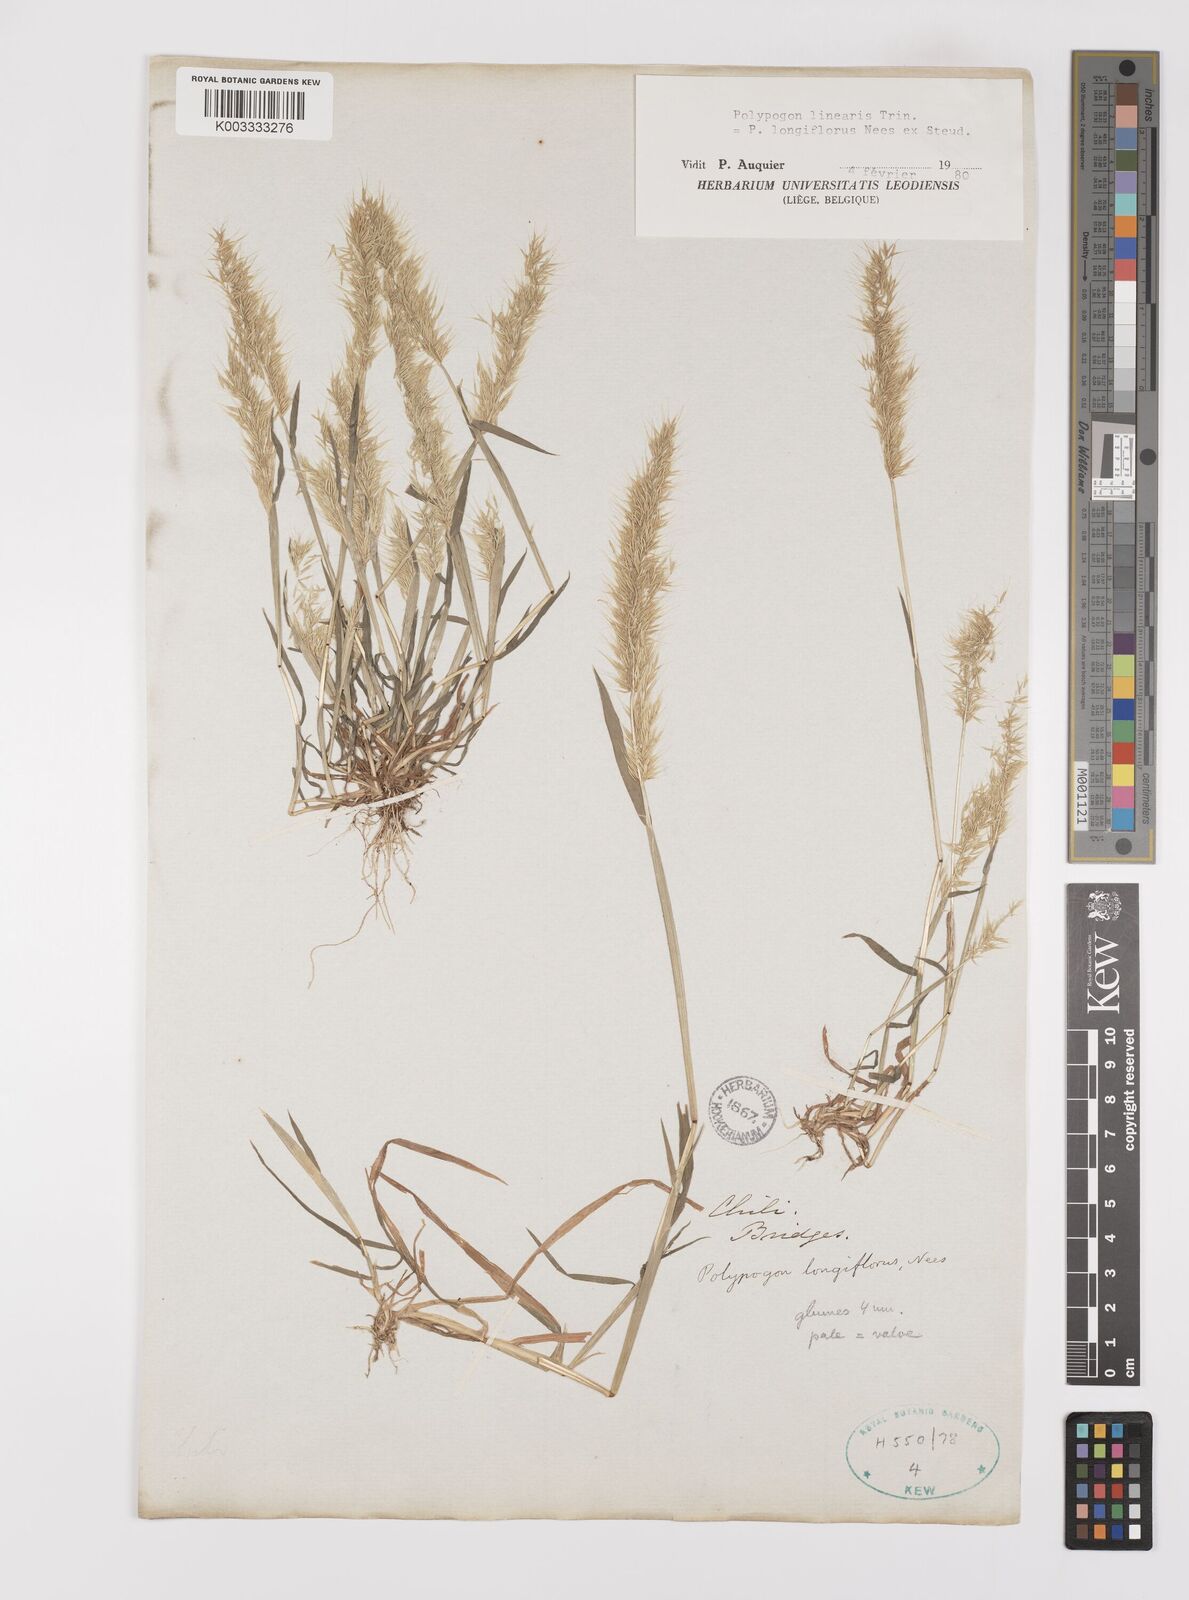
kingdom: Plantae
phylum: Tracheophyta
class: Liliopsida
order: Poales
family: Poaceae
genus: Polypogon
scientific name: Polypogon linearis
